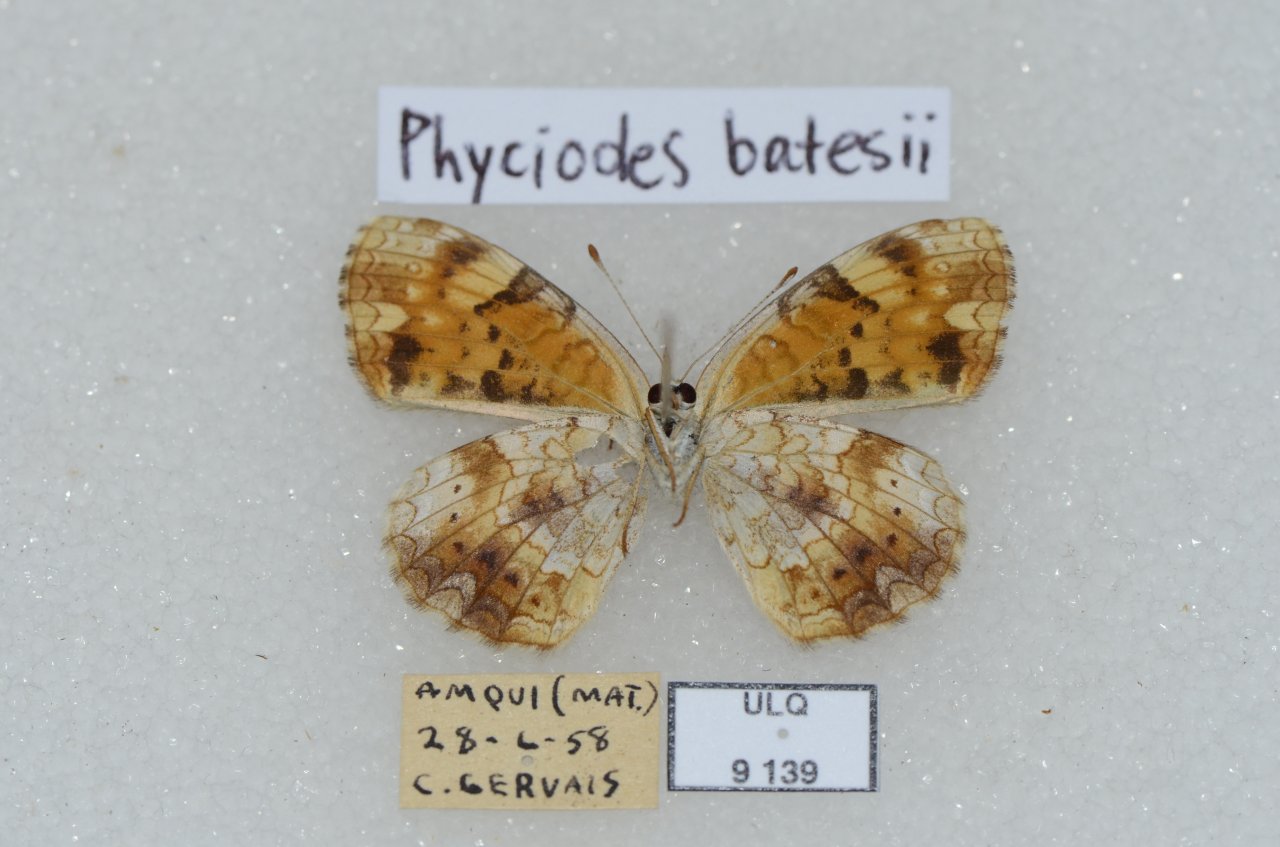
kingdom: Animalia
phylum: Arthropoda
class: Insecta
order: Lepidoptera
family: Nymphalidae
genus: Phyciodes
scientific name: Phyciodes tharos
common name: Northern Crescent
